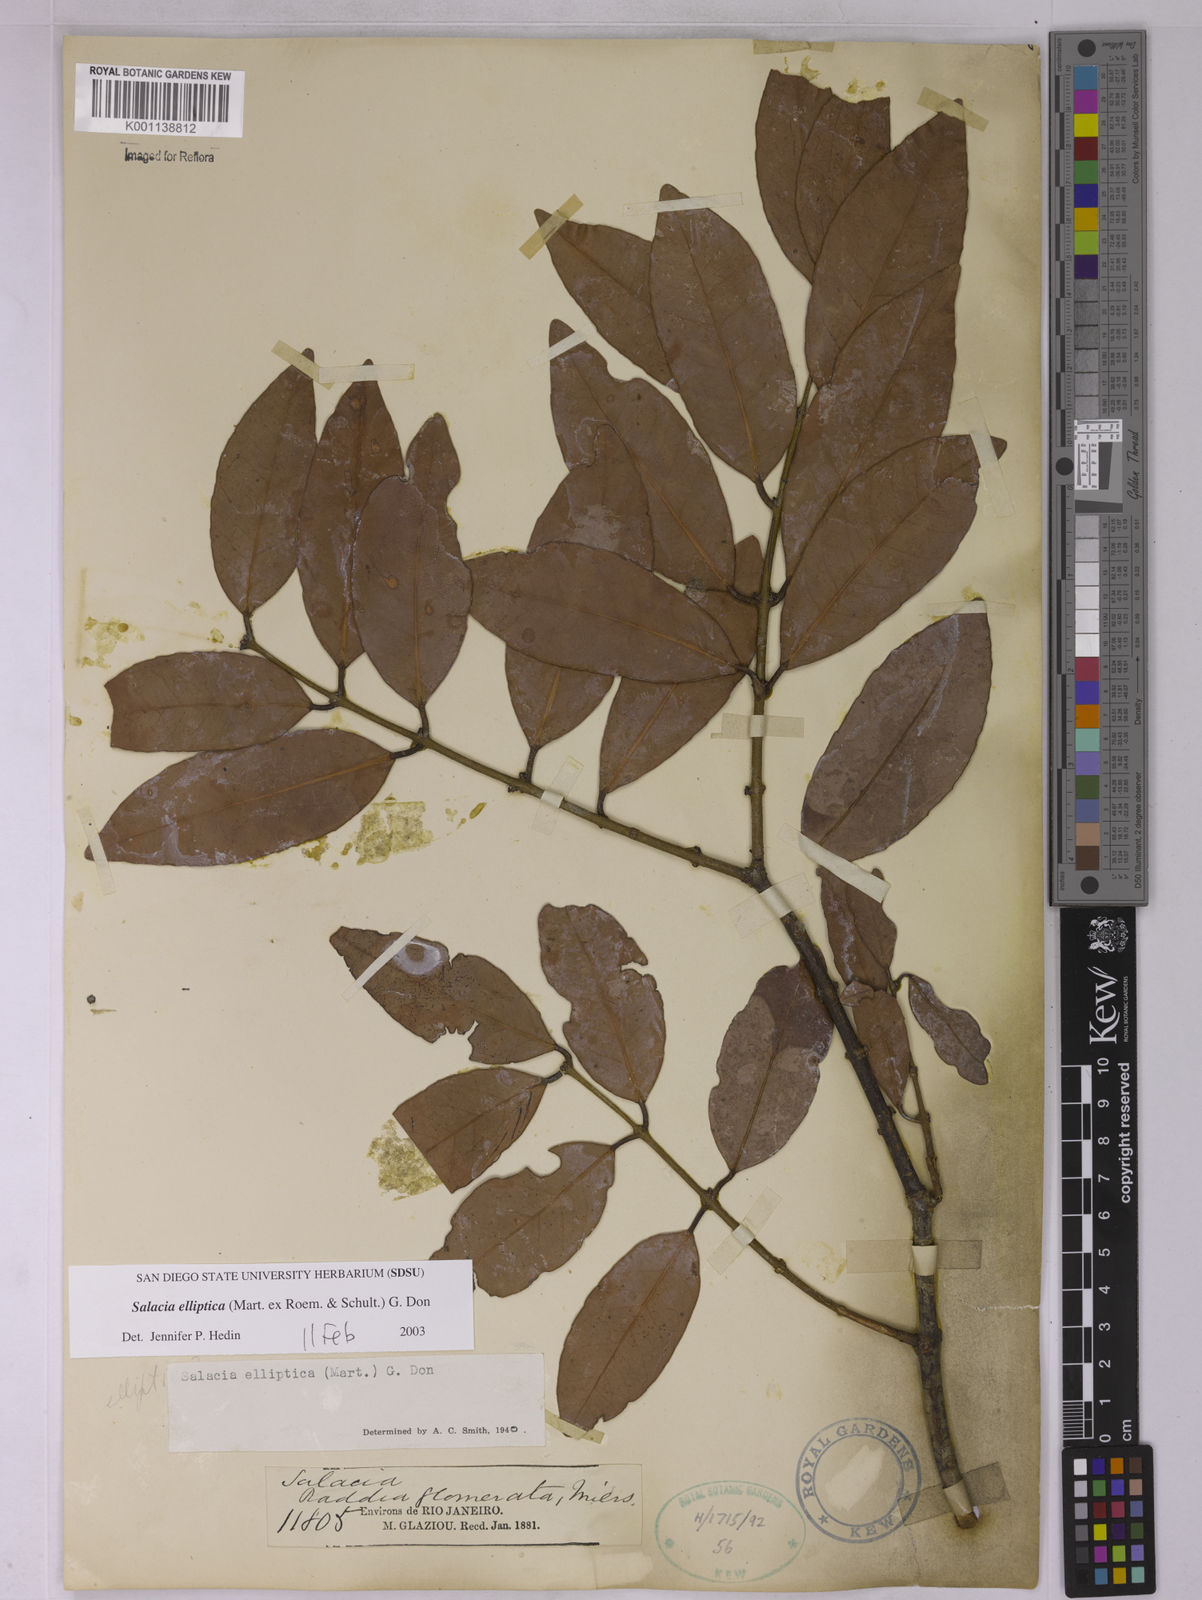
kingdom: Plantae
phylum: Tracheophyta
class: Magnoliopsida
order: Celastrales
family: Celastraceae
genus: Salacia
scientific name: Salacia elliptica
